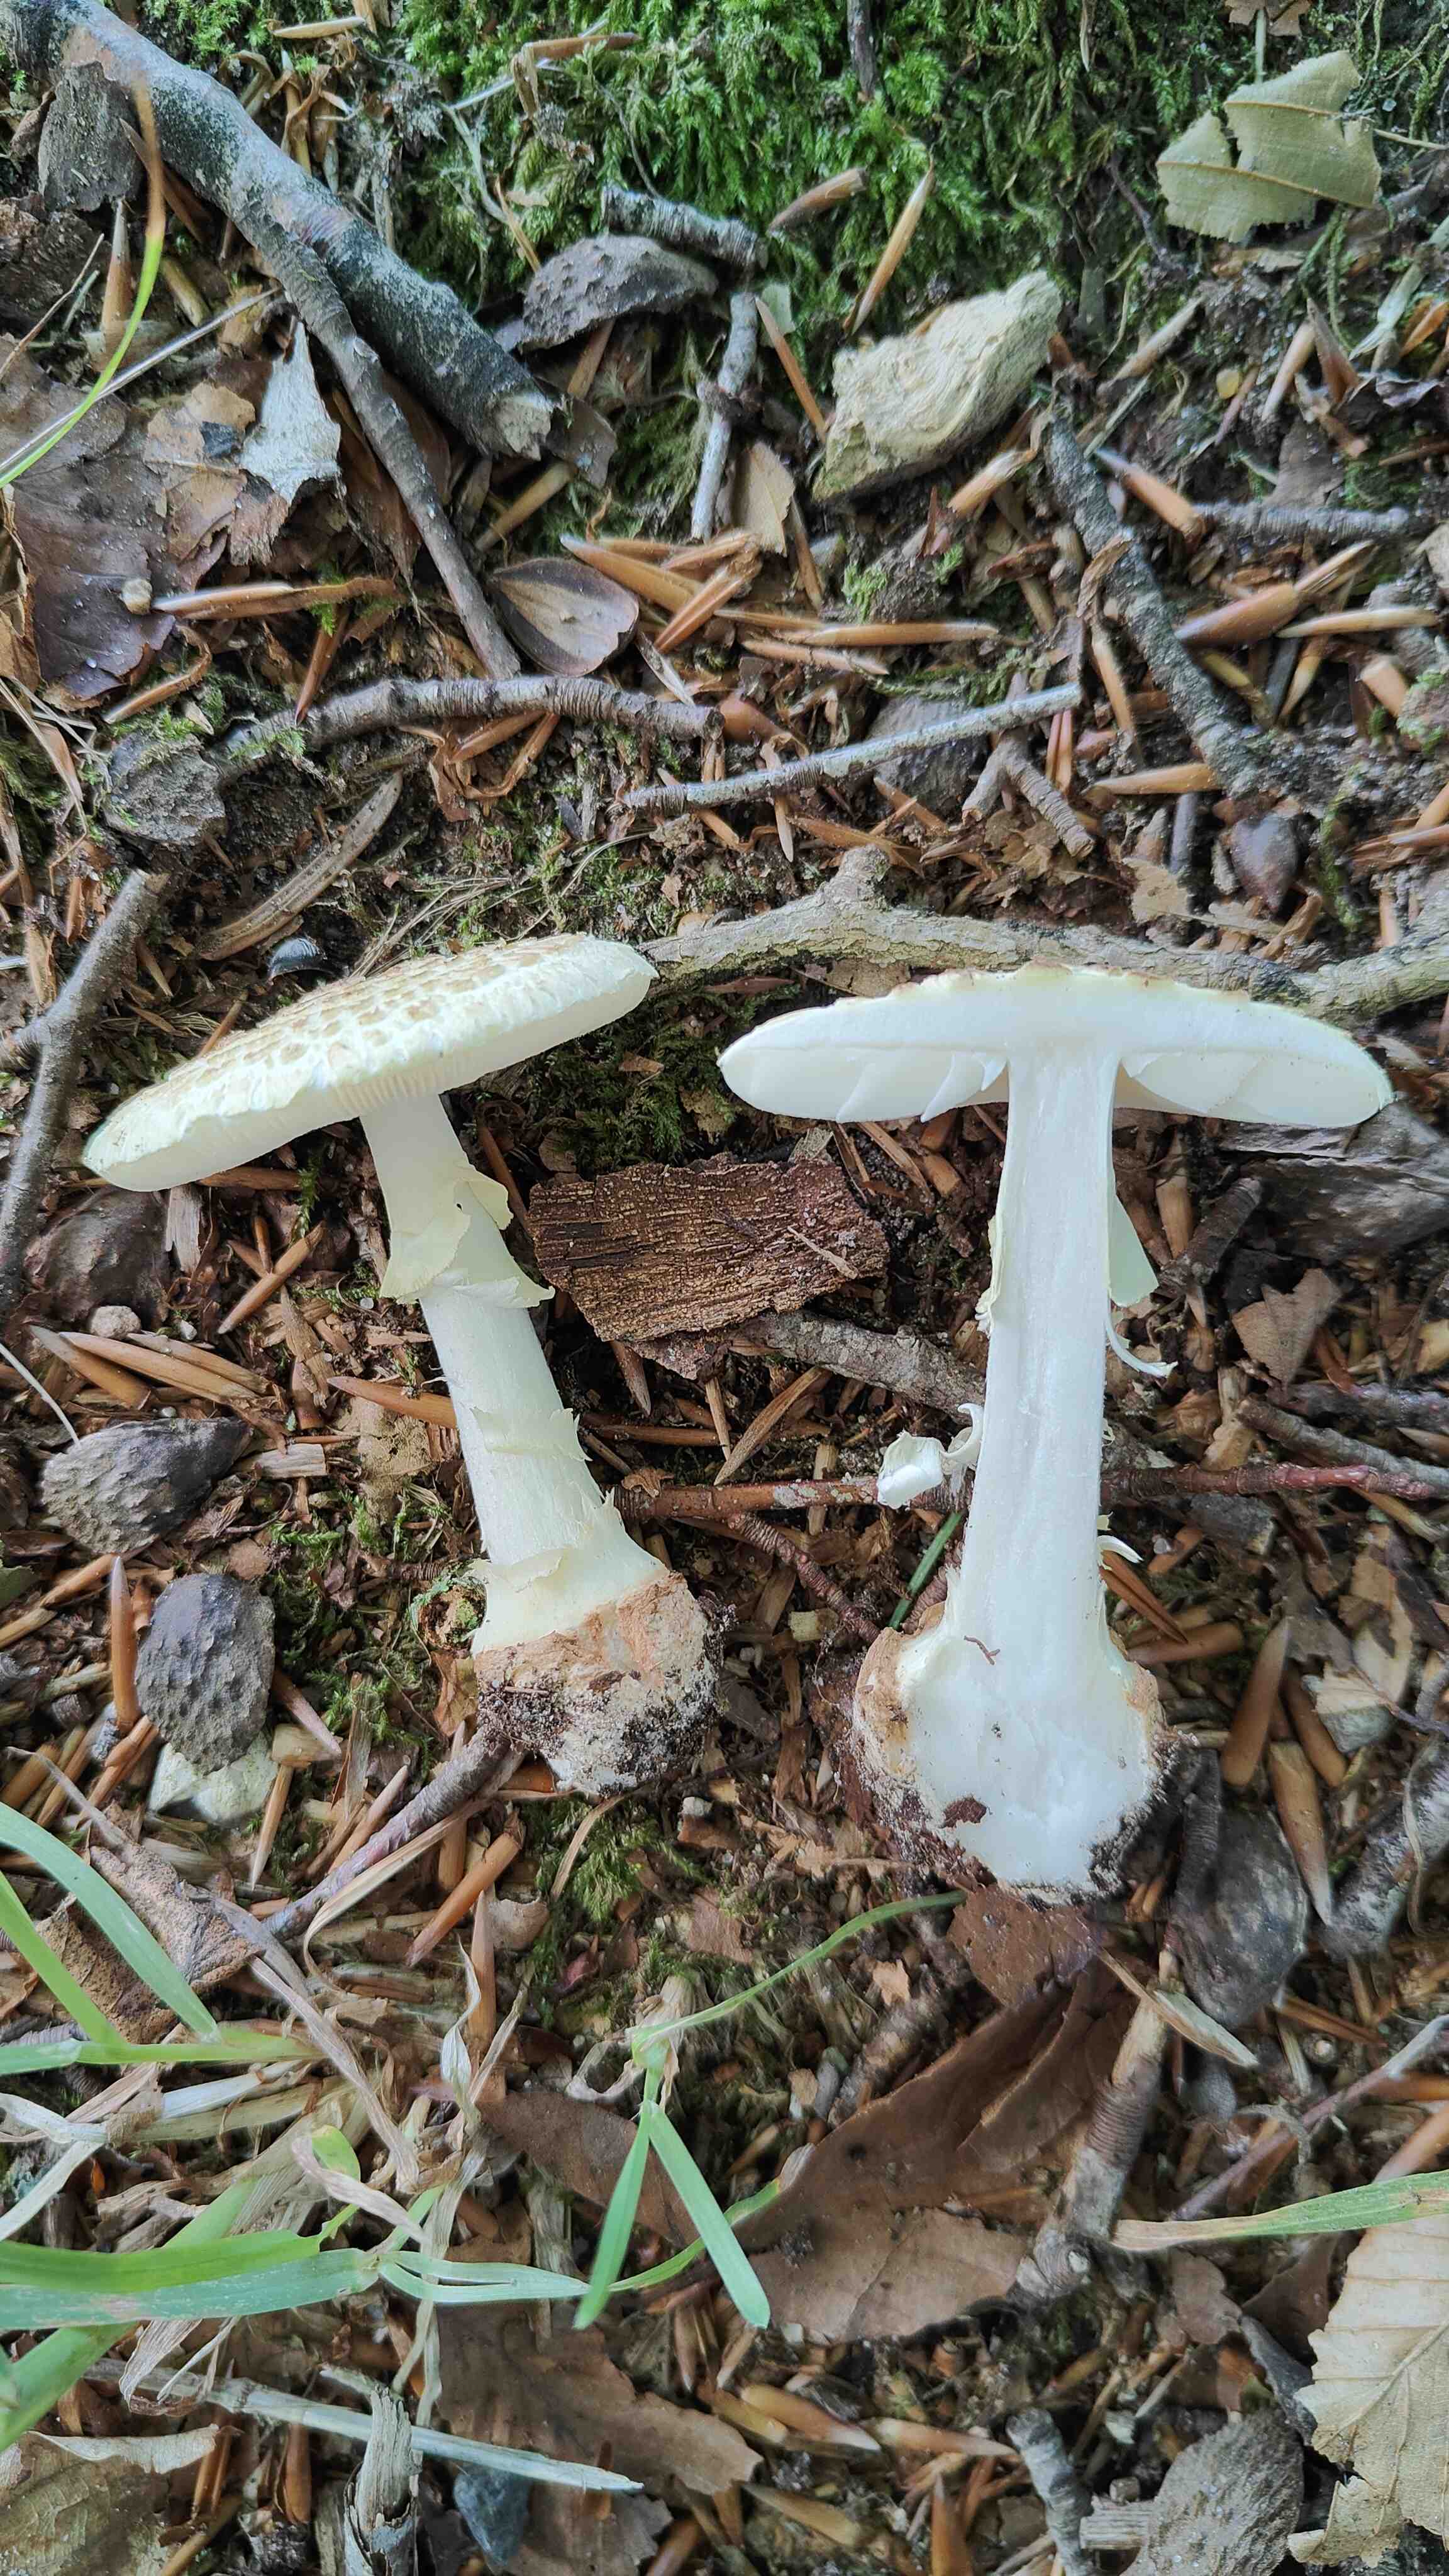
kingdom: Fungi
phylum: Basidiomycota
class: Agaricomycetes
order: Agaricales
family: Amanitaceae
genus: Amanita
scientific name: Amanita citrina
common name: kugleknoldet fluesvamp
